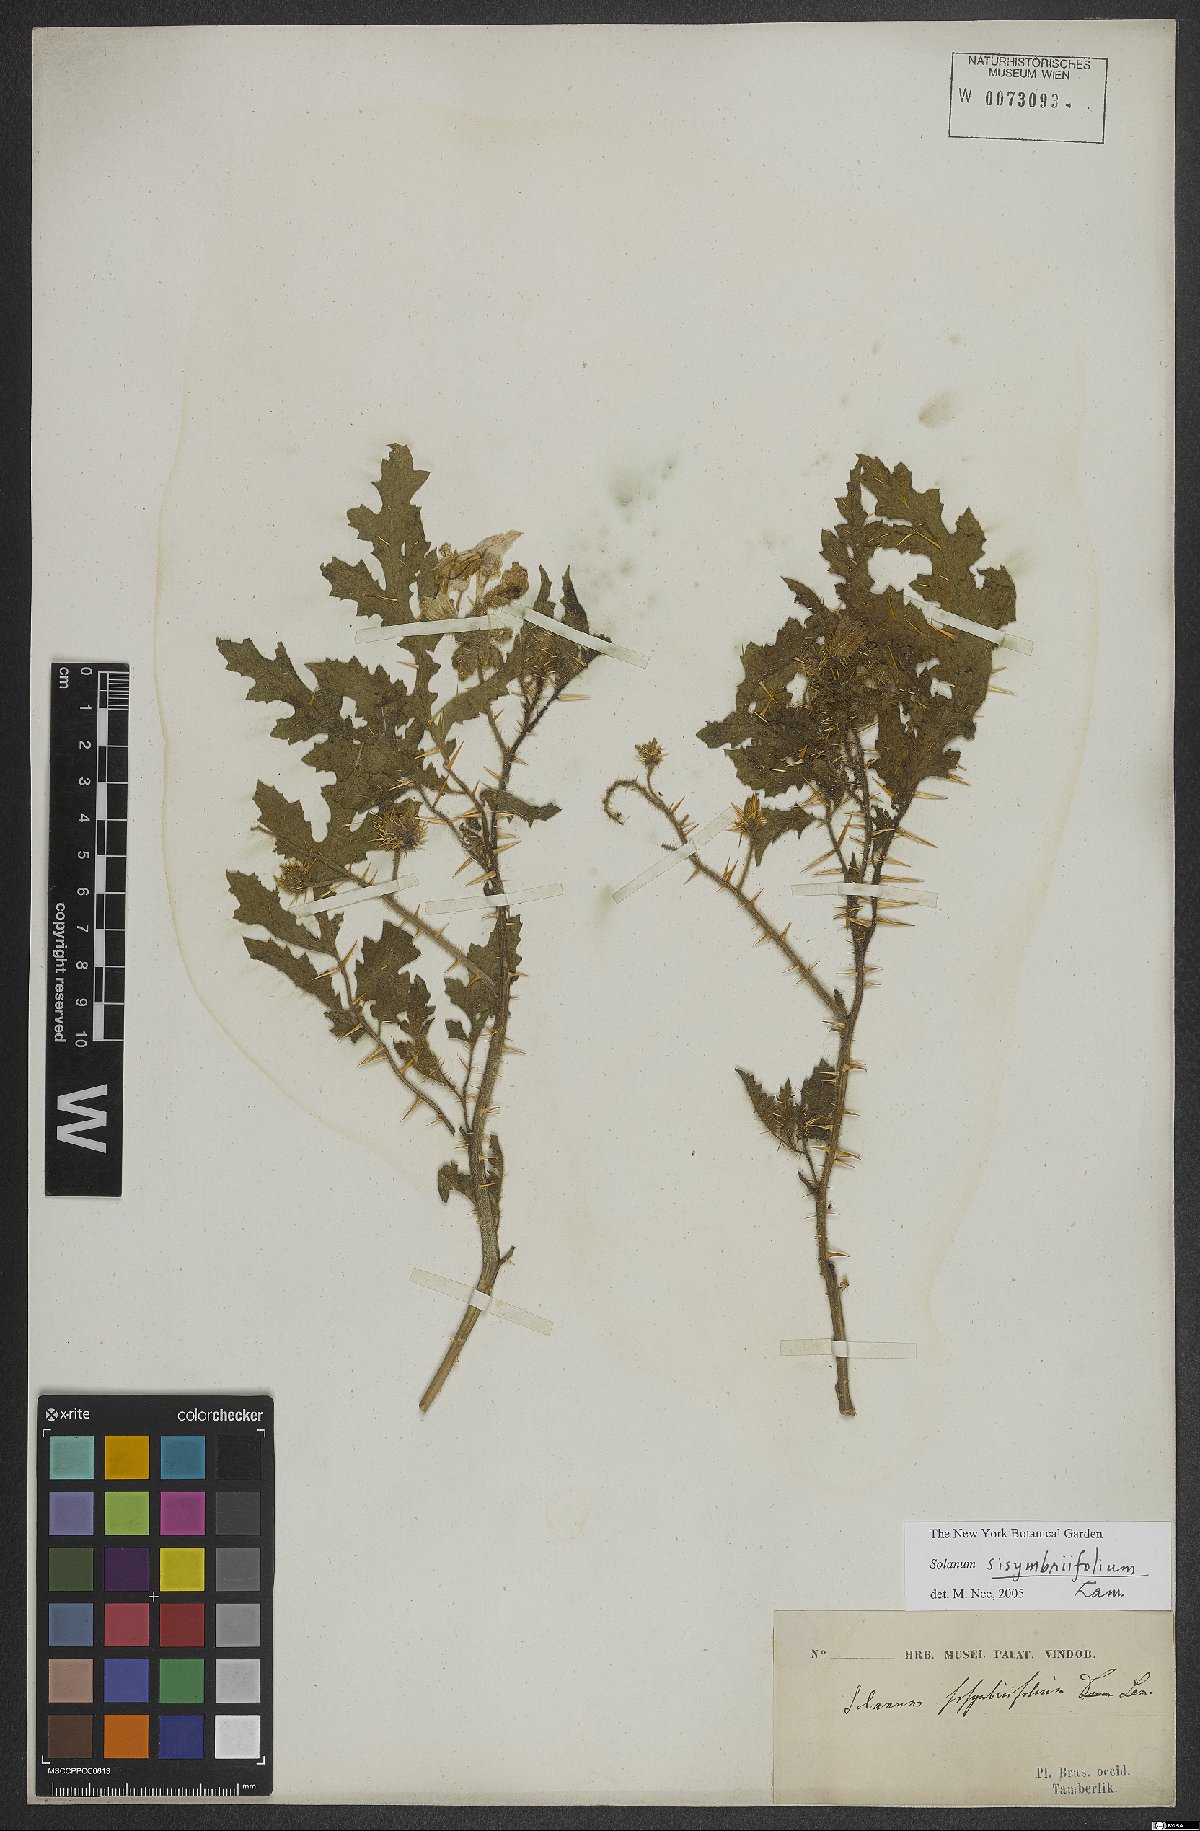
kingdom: Plantae
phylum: Tracheophyta
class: Magnoliopsida
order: Solanales
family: Solanaceae
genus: Solanum
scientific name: Solanum sisymbriifolium
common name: Red buffalo-bur
